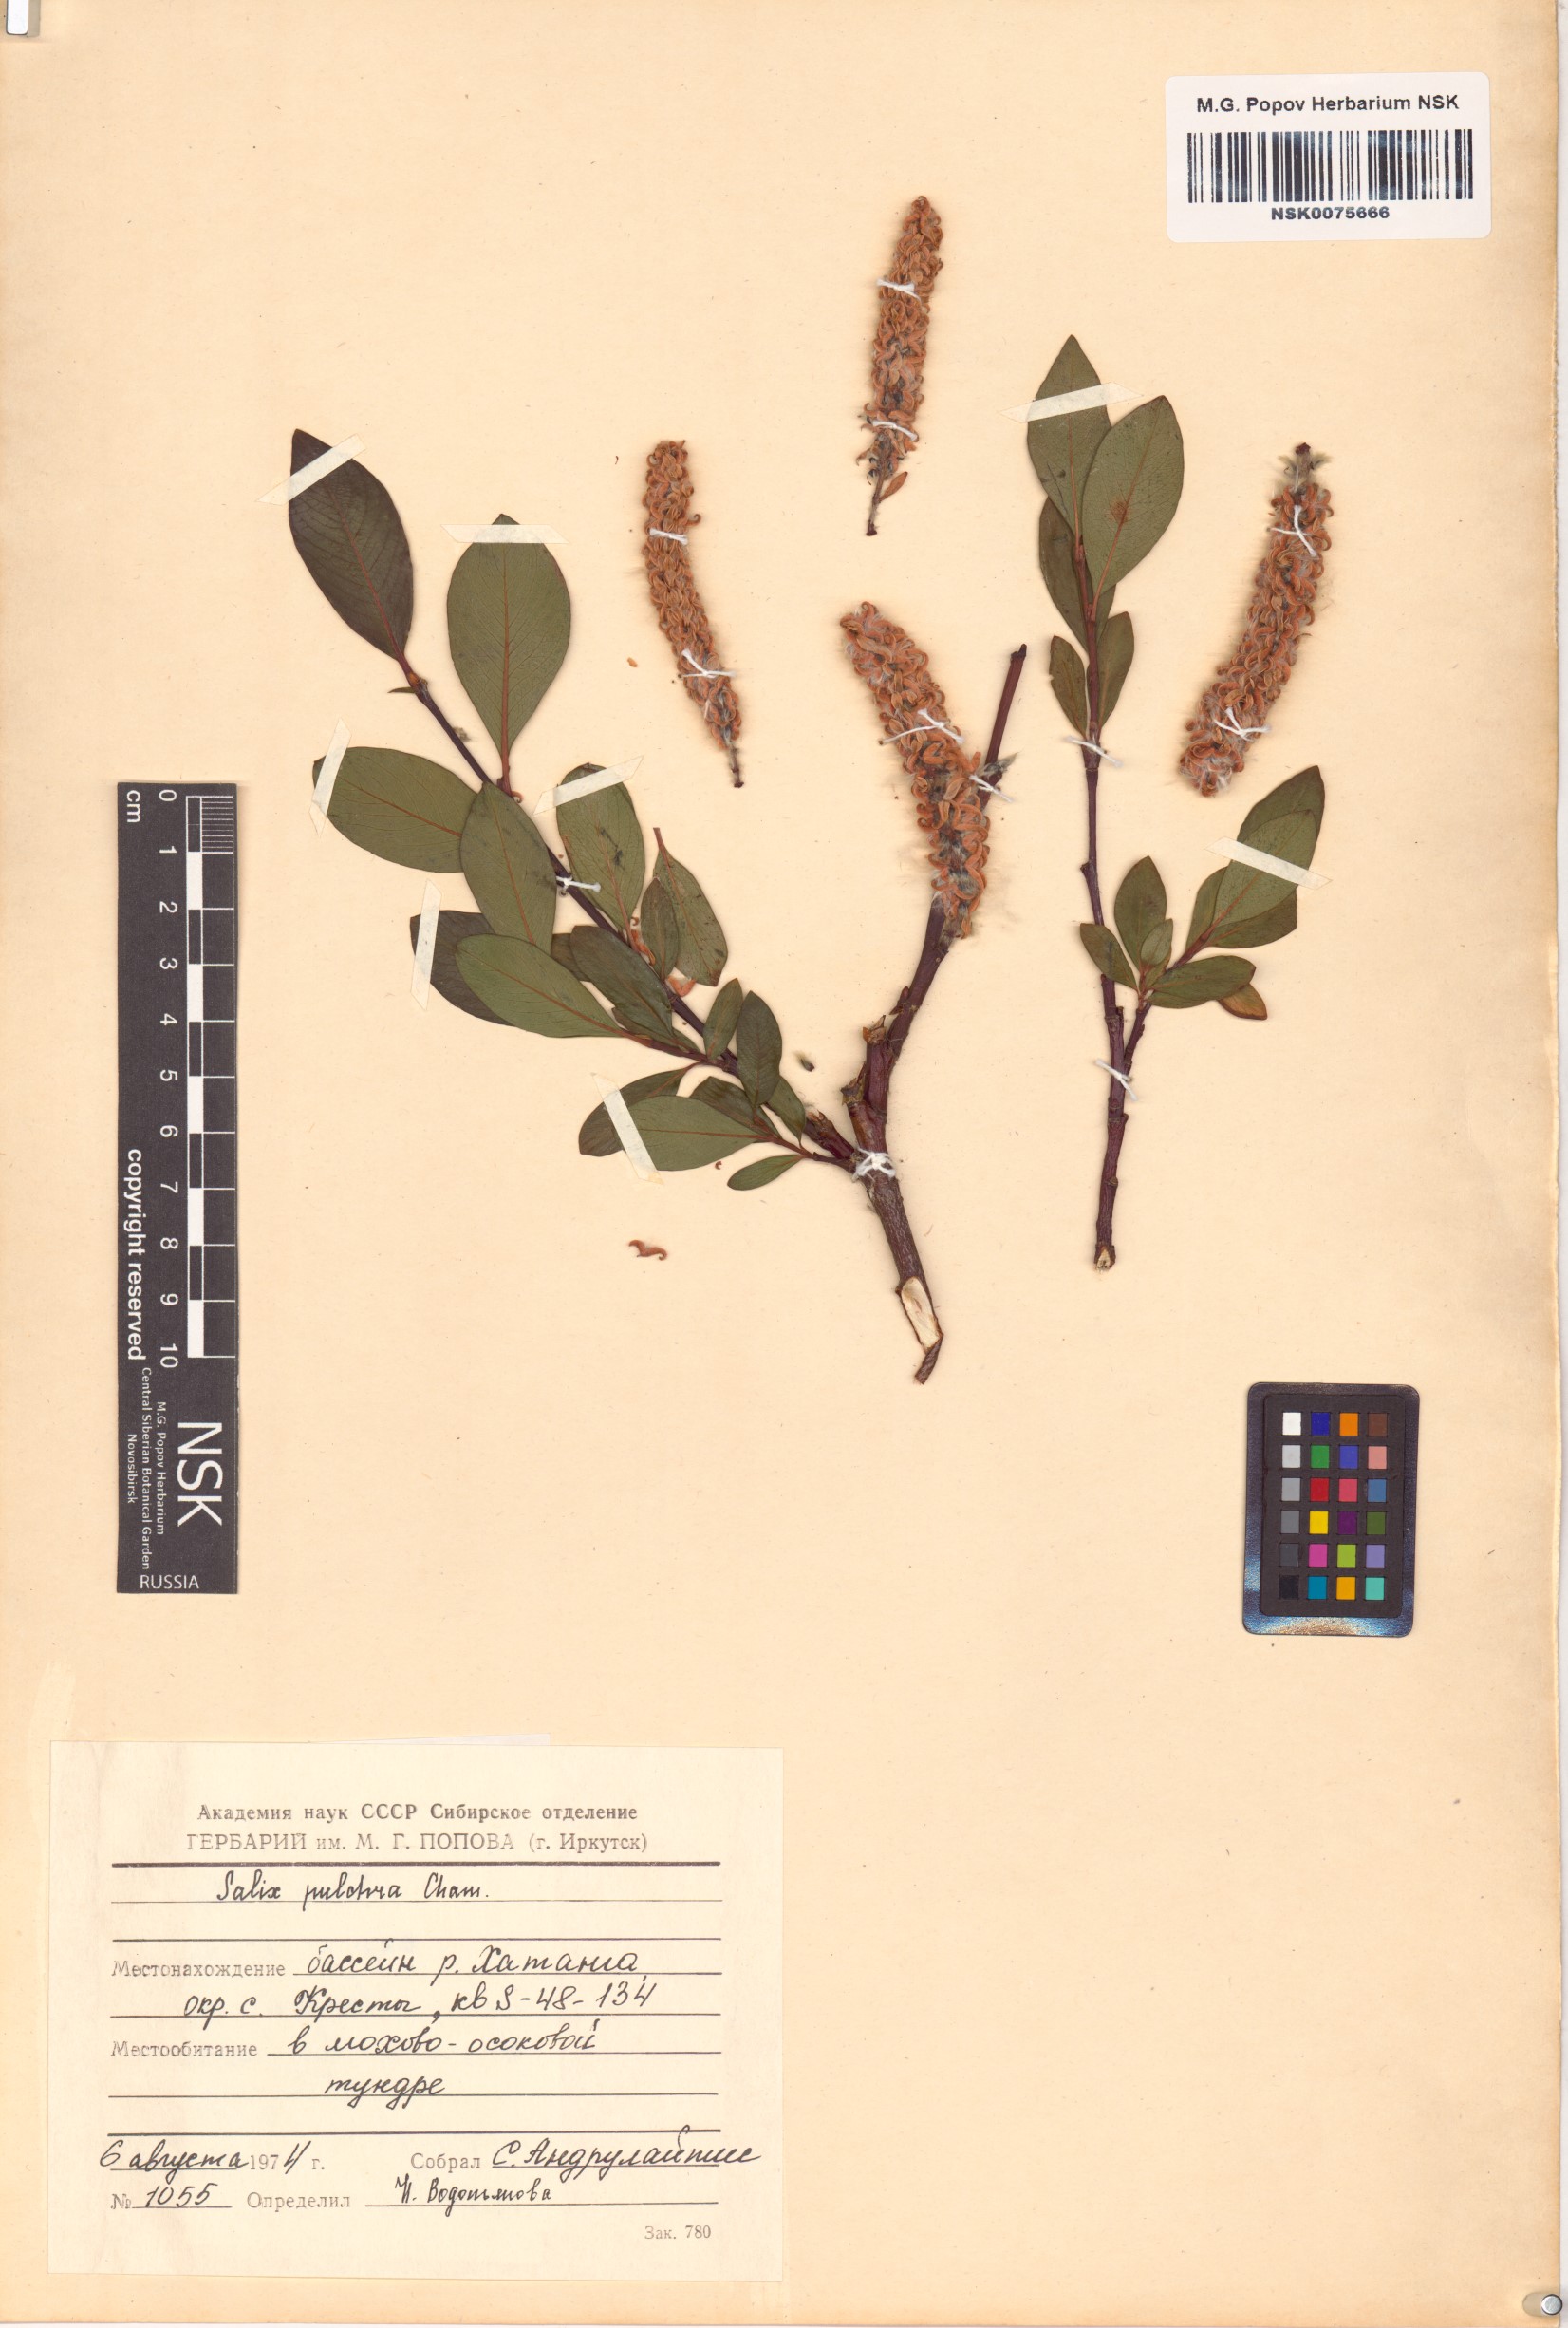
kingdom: Plantae
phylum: Tracheophyta
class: Magnoliopsida
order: Malpighiales
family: Salicaceae
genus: Salix
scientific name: Salix pulchra
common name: Diamond-leaved willow
